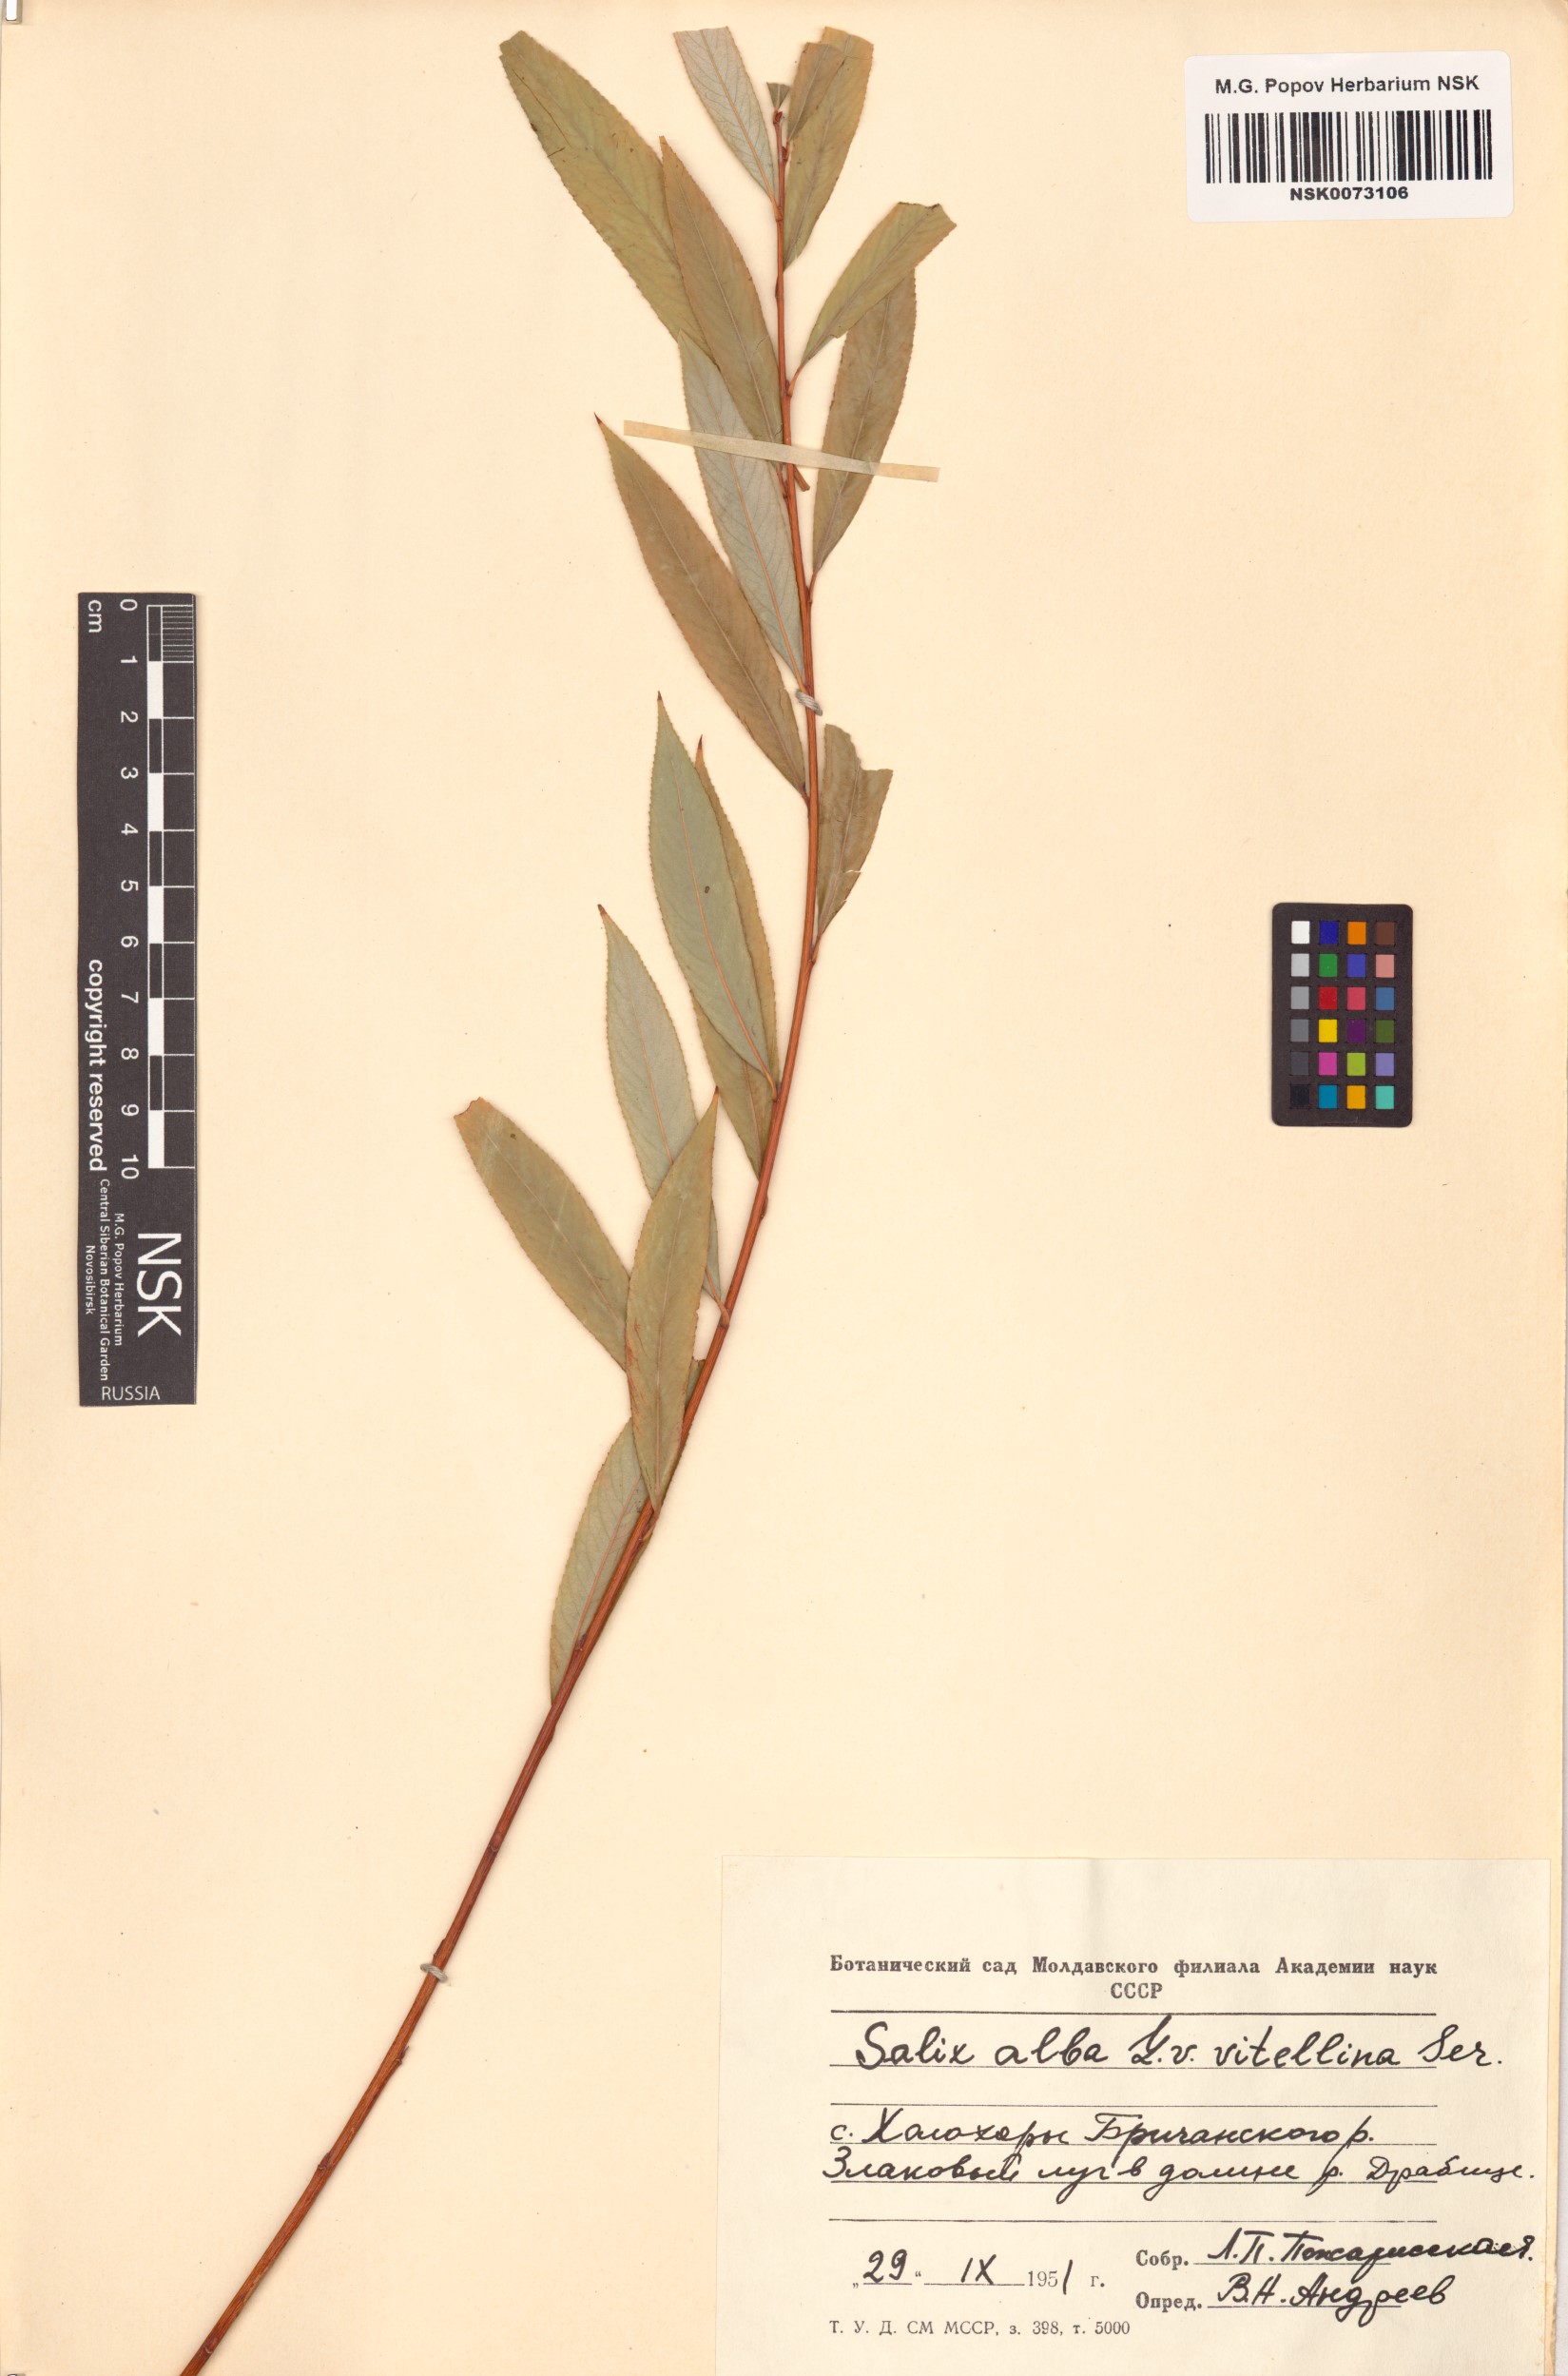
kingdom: Plantae
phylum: Tracheophyta
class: Magnoliopsida
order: Malpighiales
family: Salicaceae
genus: Salix
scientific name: Salix alba
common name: White willow
